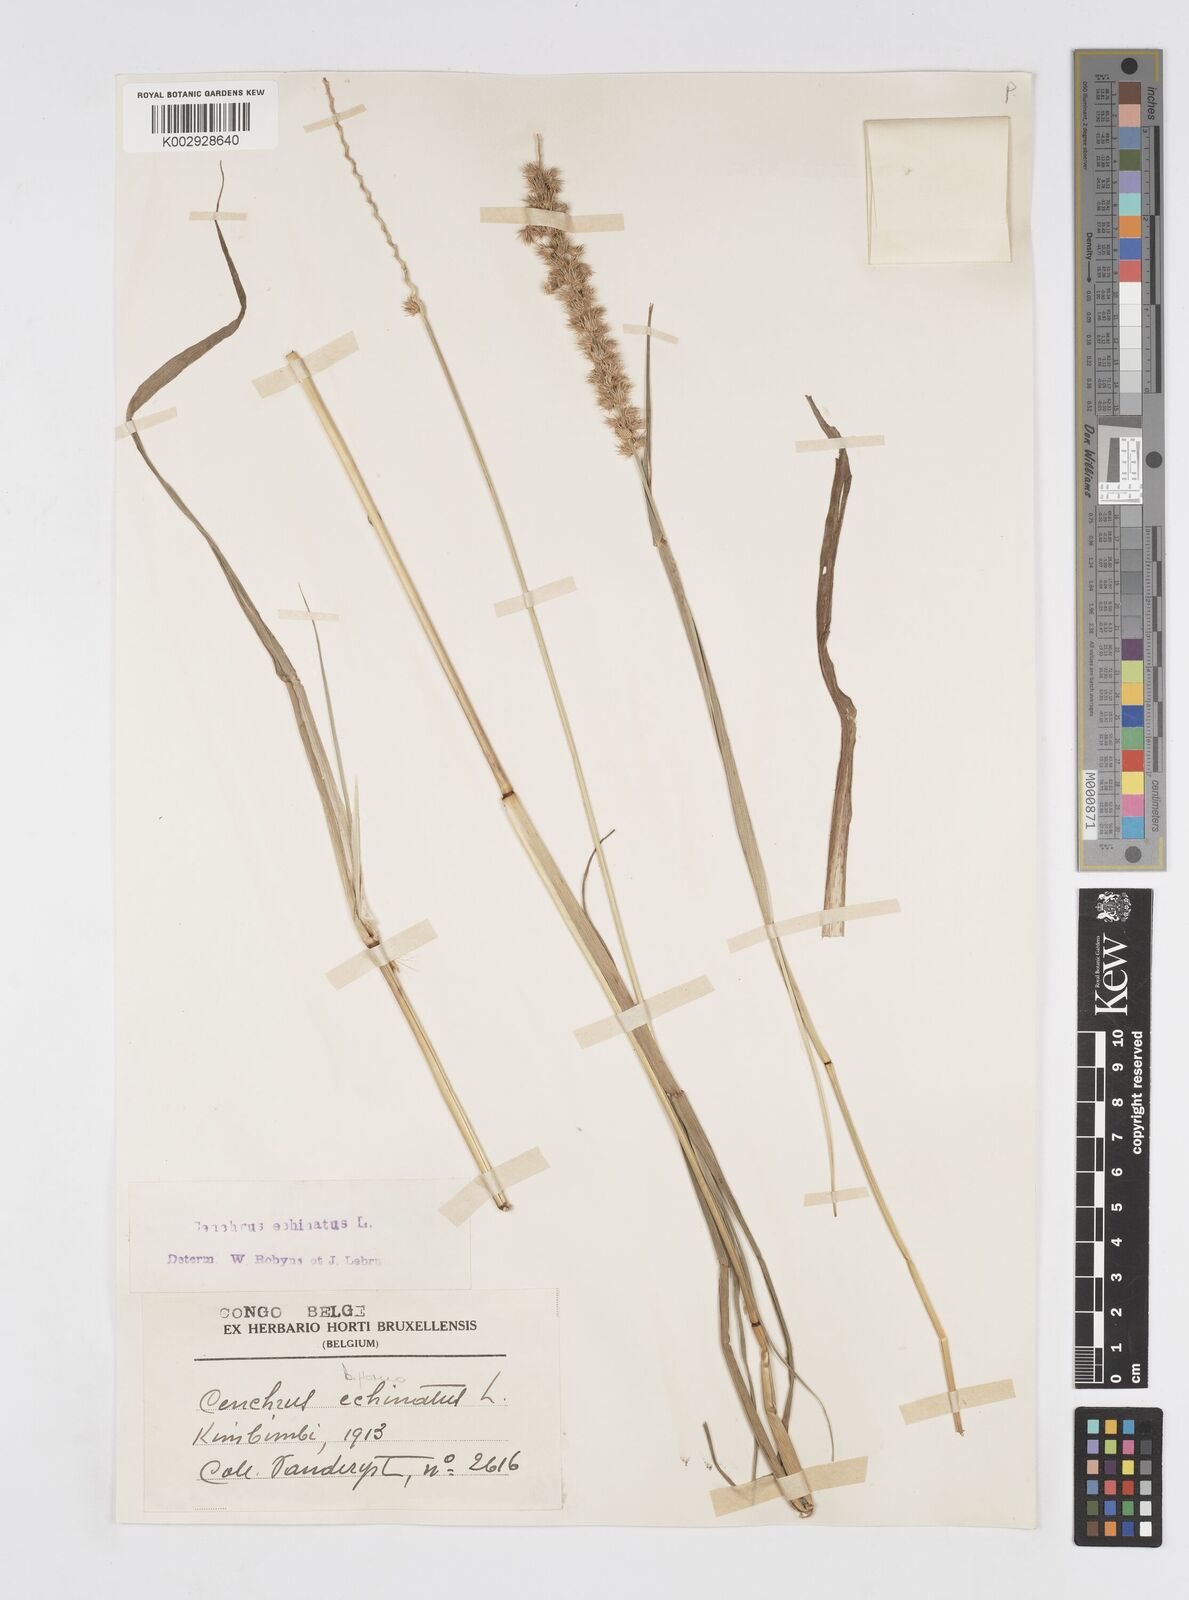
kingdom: Plantae
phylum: Tracheophyta
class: Liliopsida
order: Poales
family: Poaceae
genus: Cenchrus
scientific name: Cenchrus biflorus
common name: Indian sandbur
